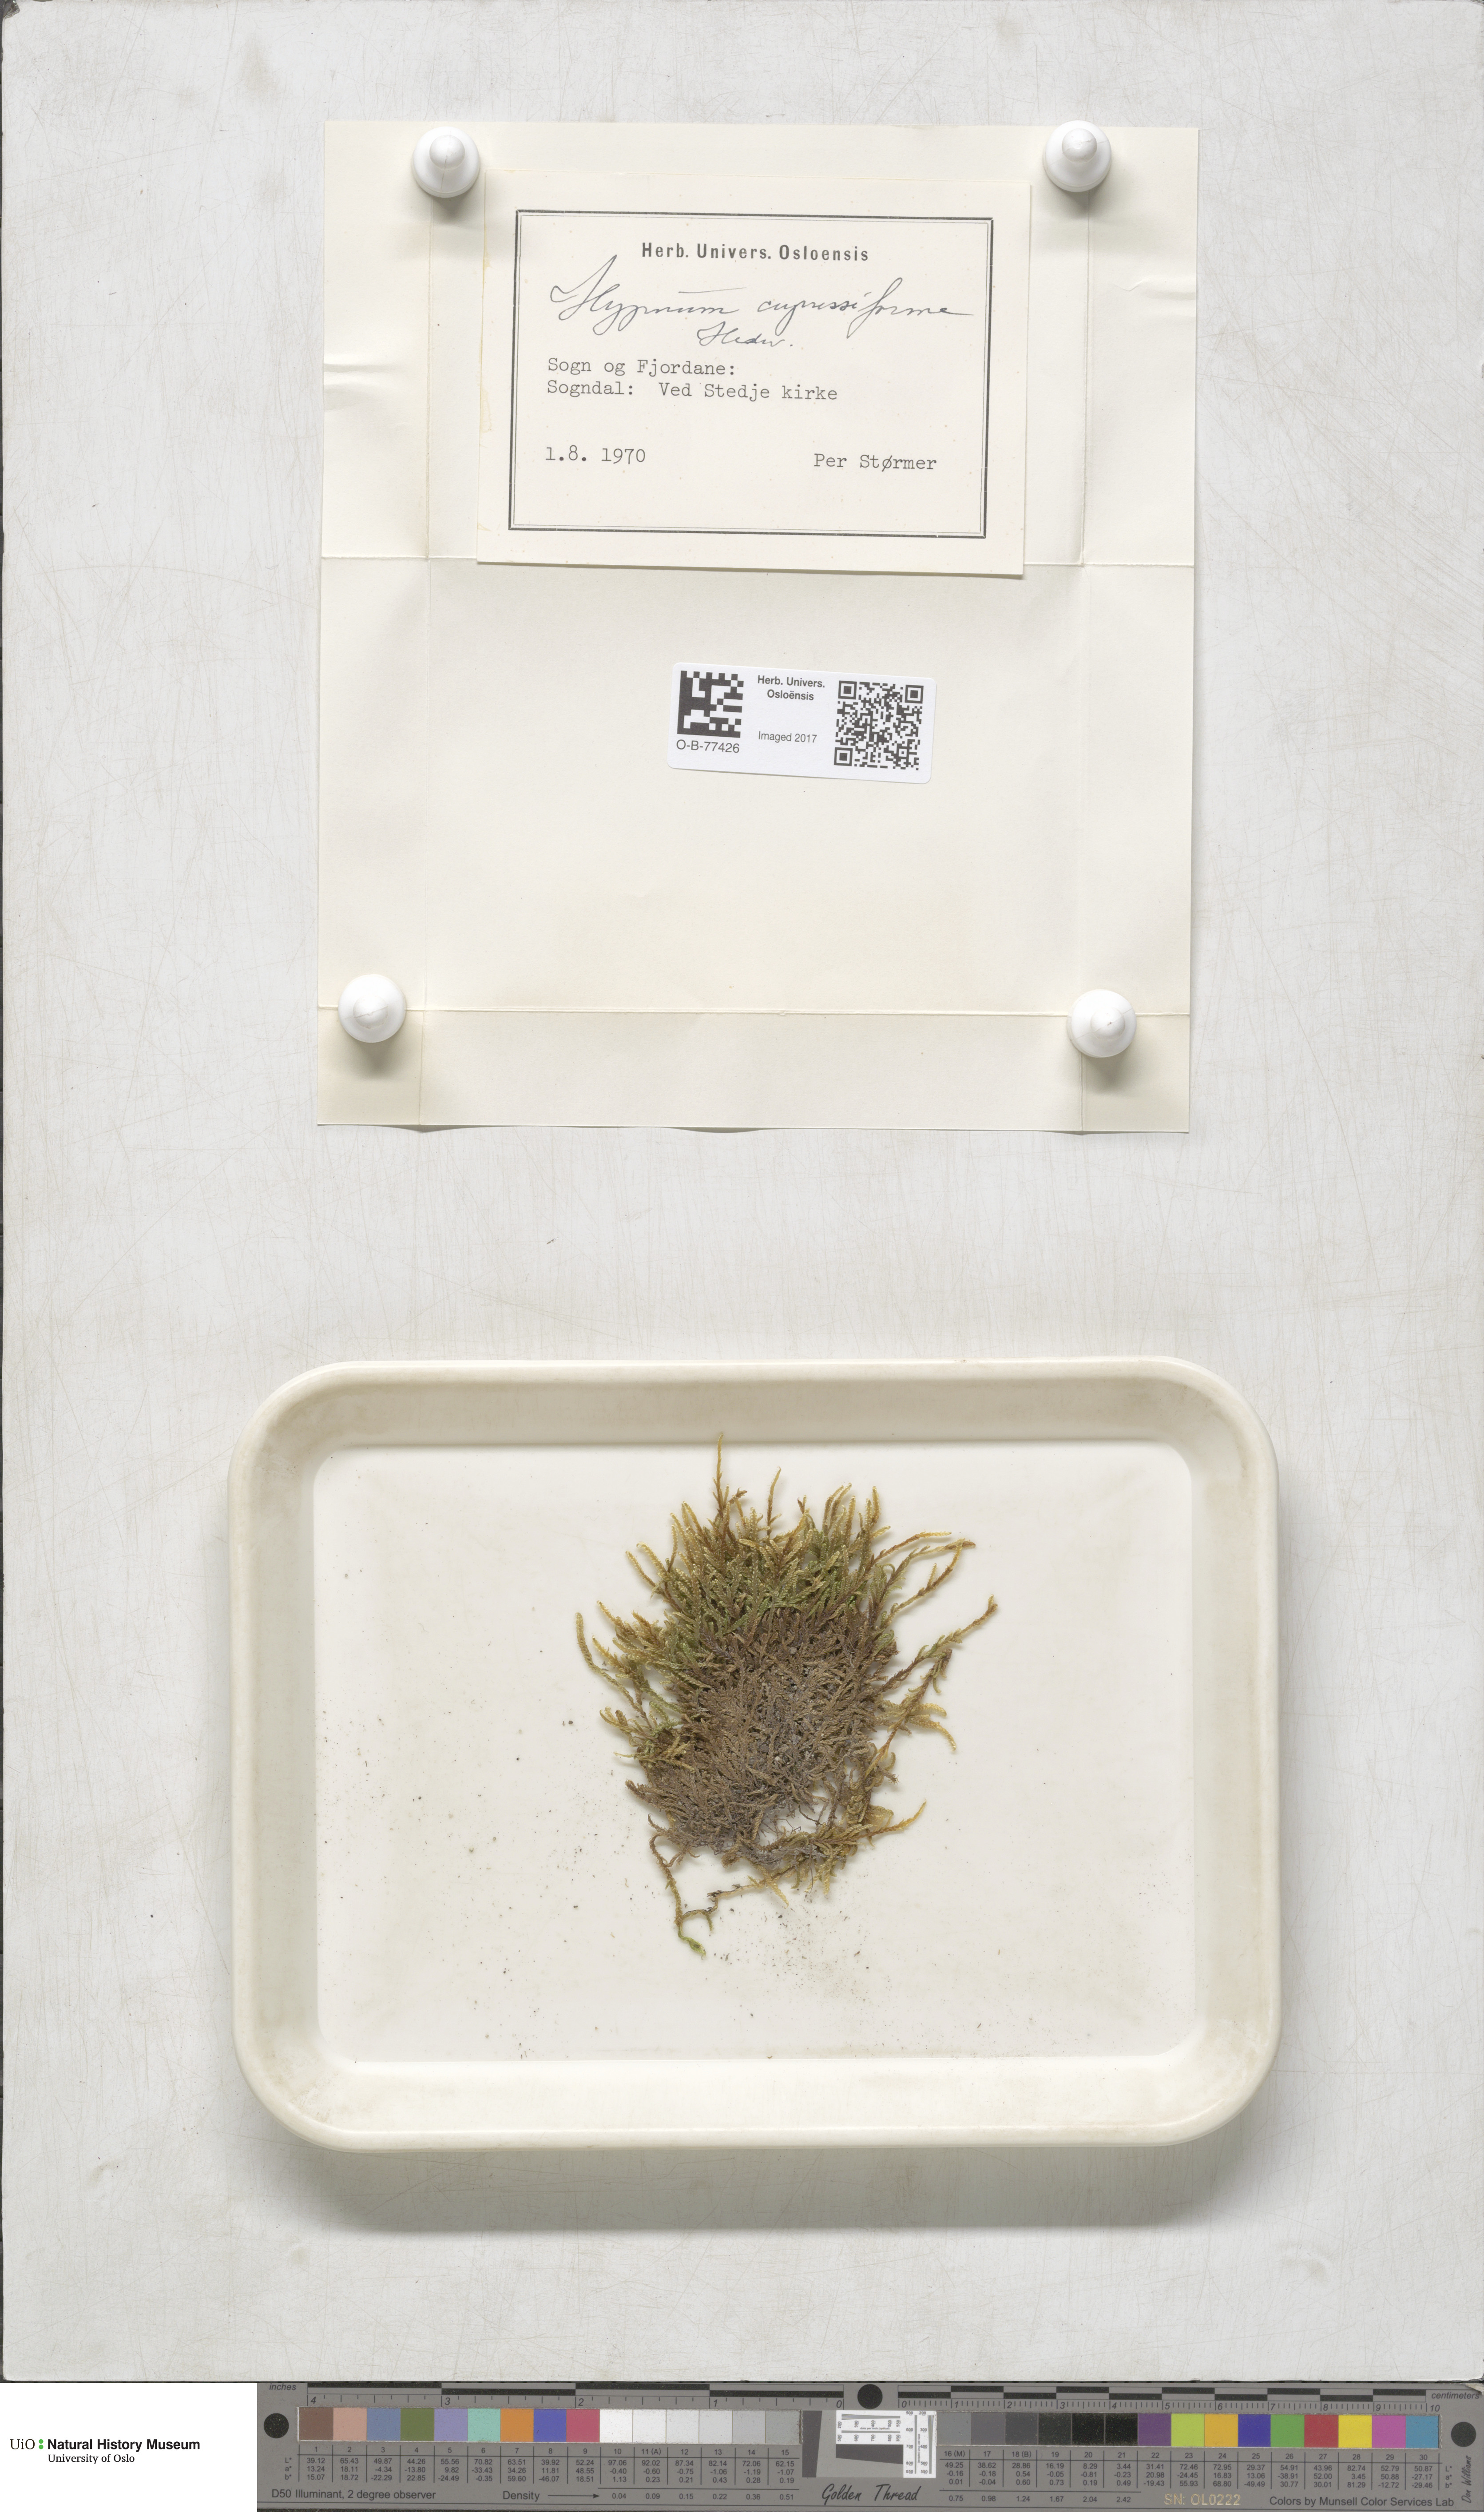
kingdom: Plantae
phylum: Bryophyta
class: Bryopsida
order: Hypnales
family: Hypnaceae
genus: Hypnum
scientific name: Hypnum cupressiforme
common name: Cypress-leaved plait-moss
